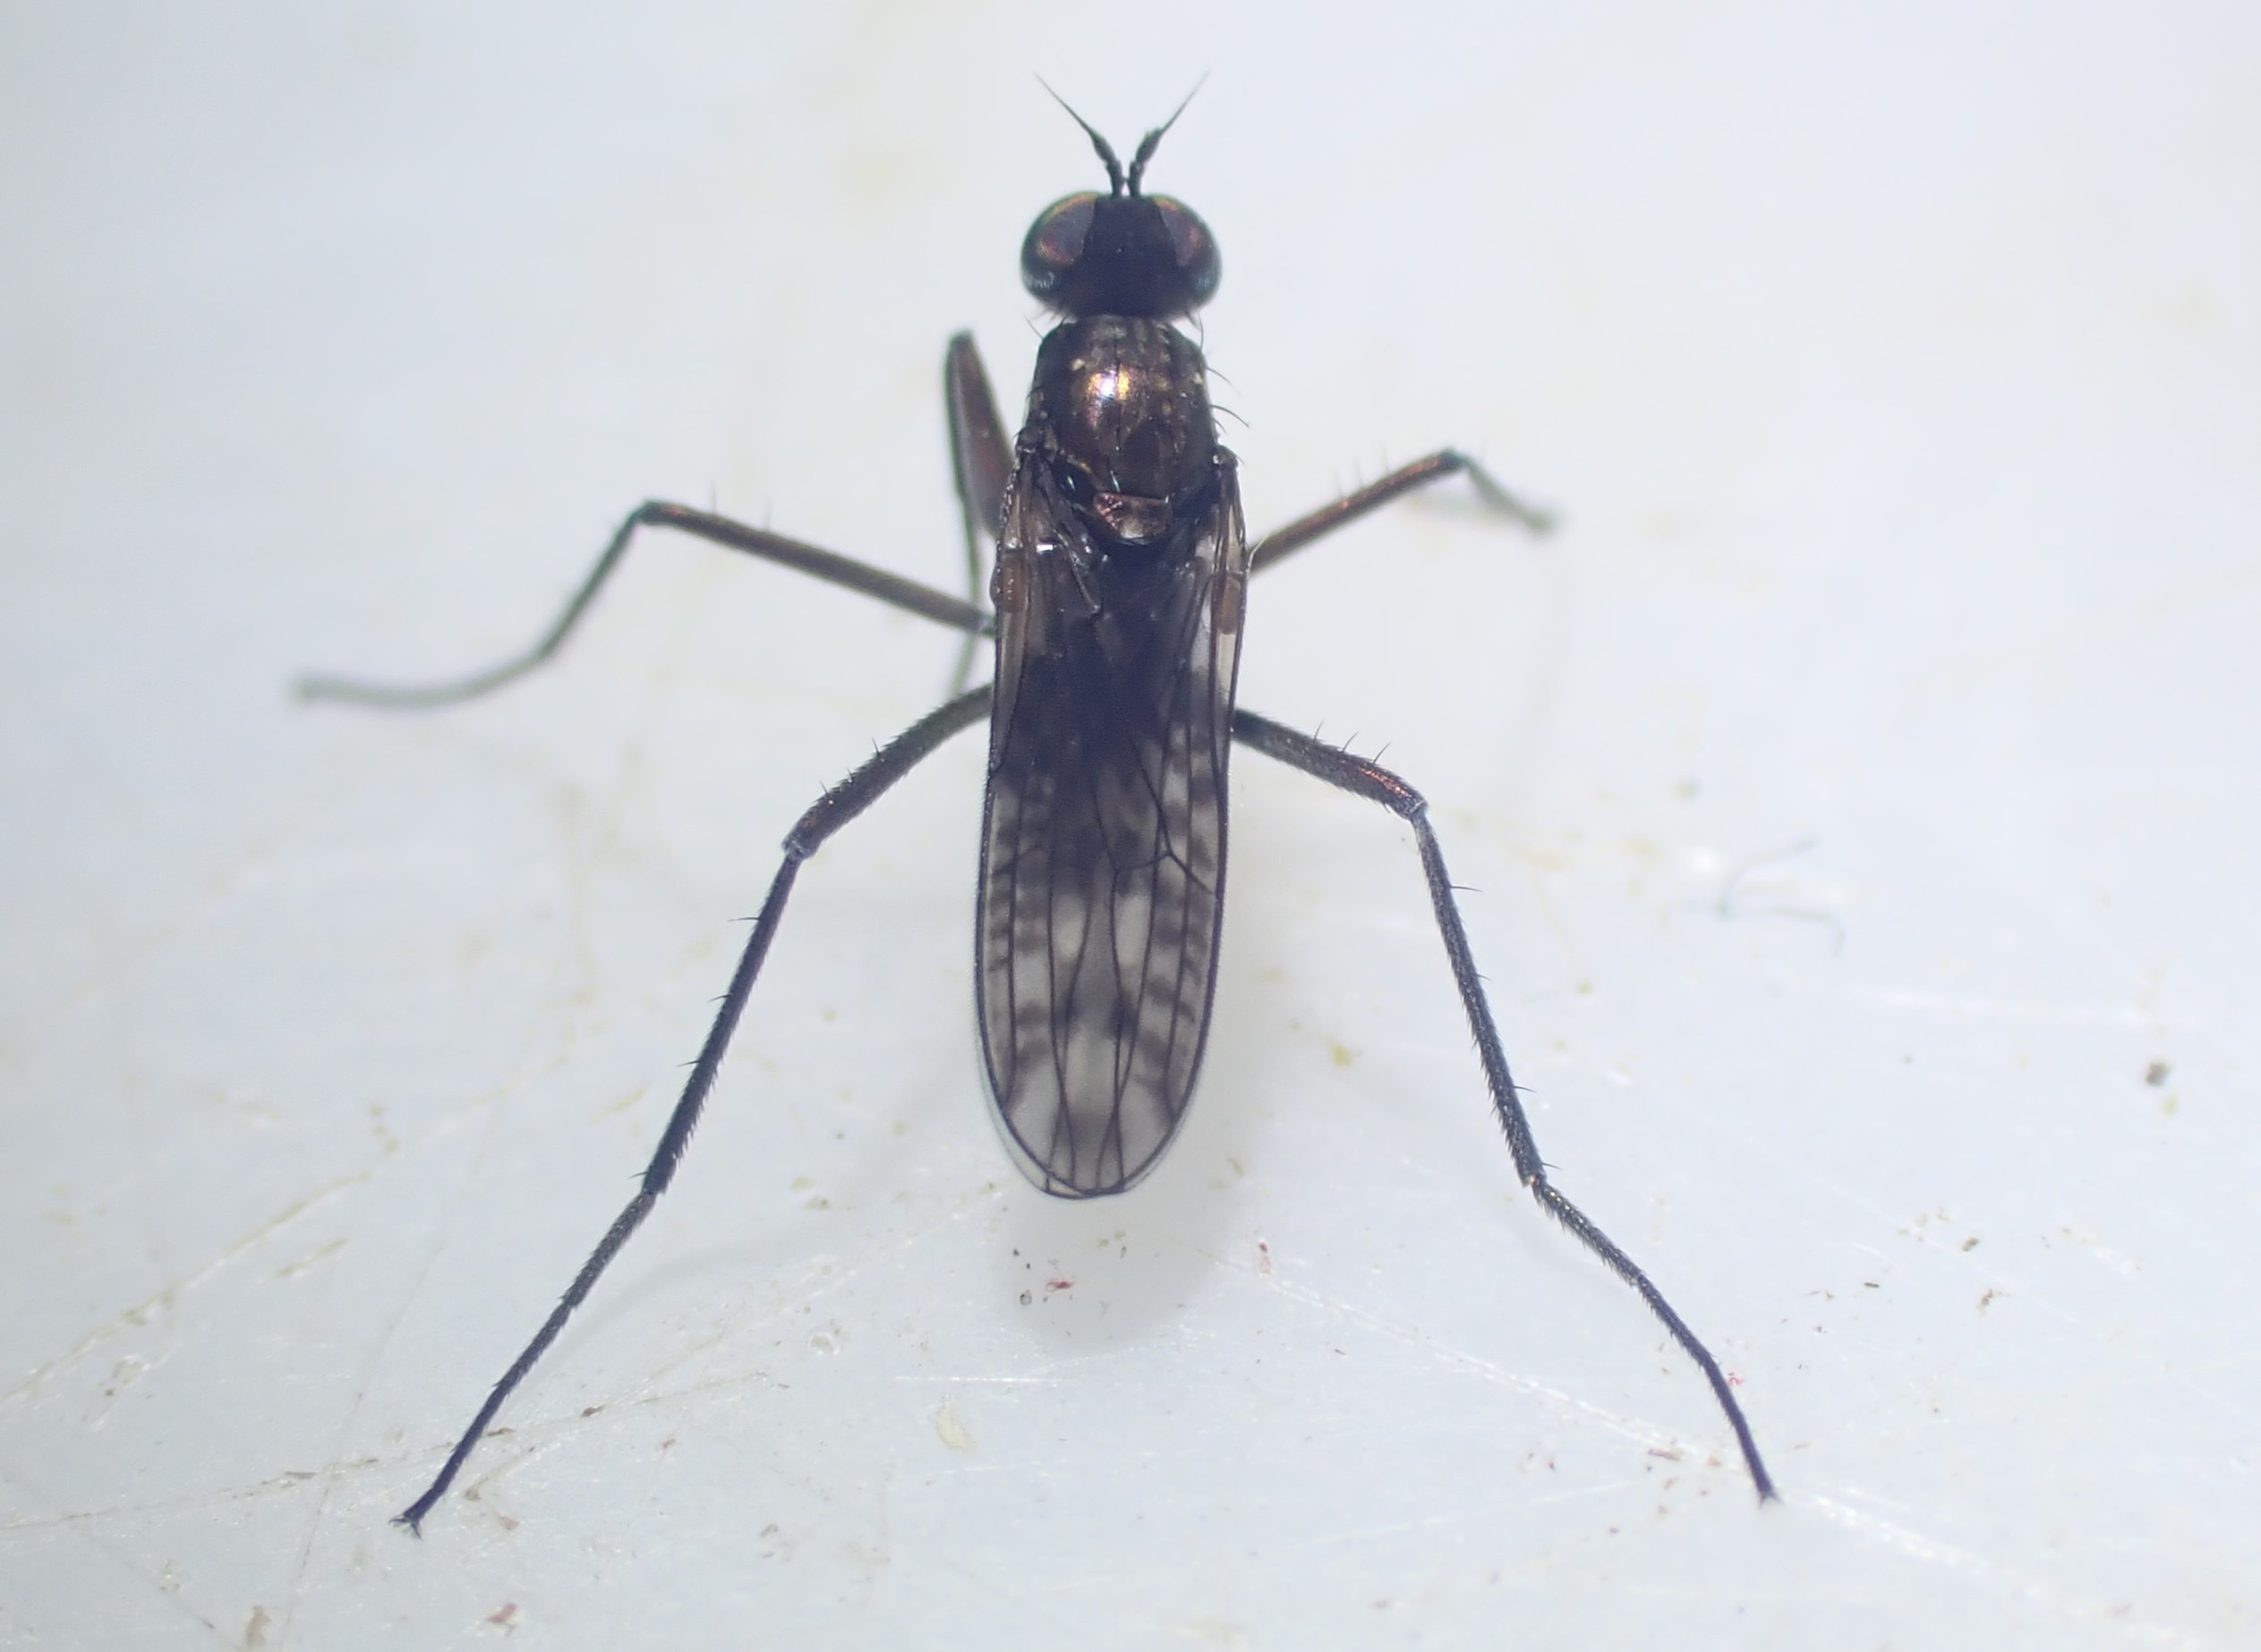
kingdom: Animalia
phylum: Arthropoda
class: Insecta
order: Diptera
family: Dolichopodidae
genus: Hydrophorus
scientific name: Hydrophorus nebulosus
